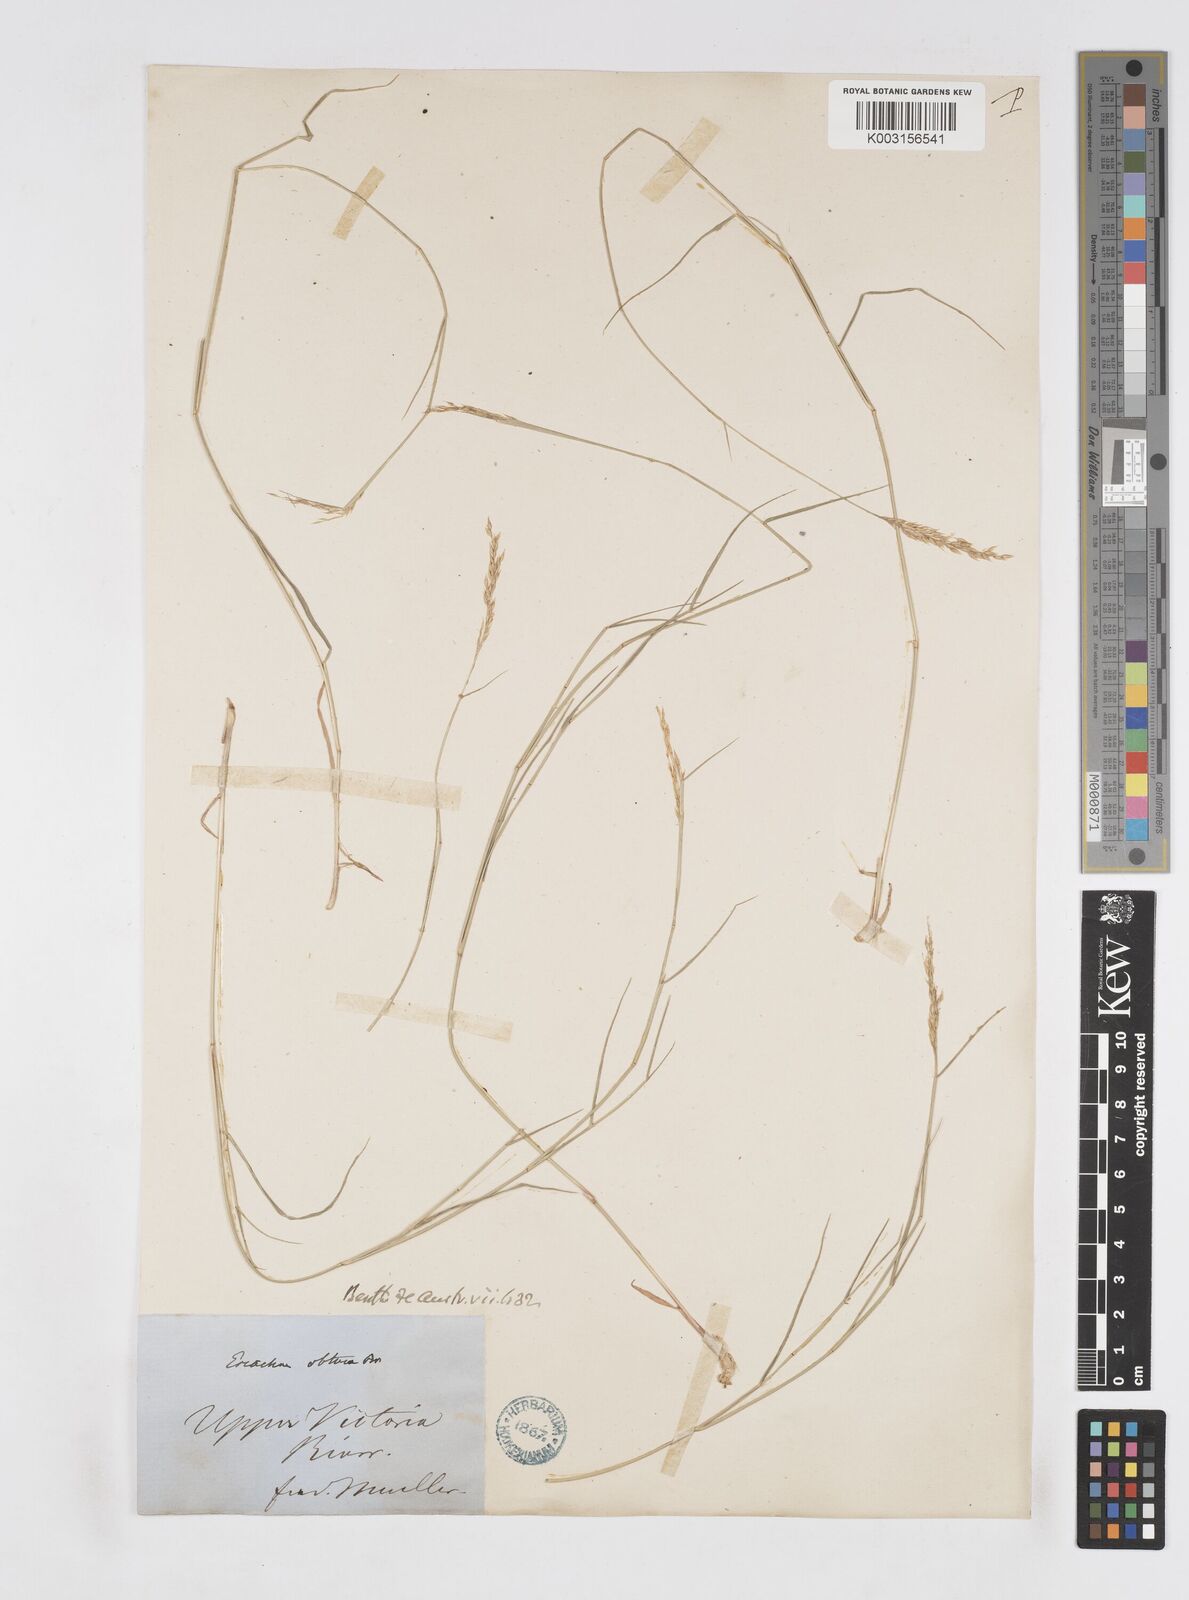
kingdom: Plantae
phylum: Tracheophyta
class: Liliopsida
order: Poales
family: Poaceae
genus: Eriachne
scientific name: Eriachne obtusa
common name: Northern wanderrie grass
